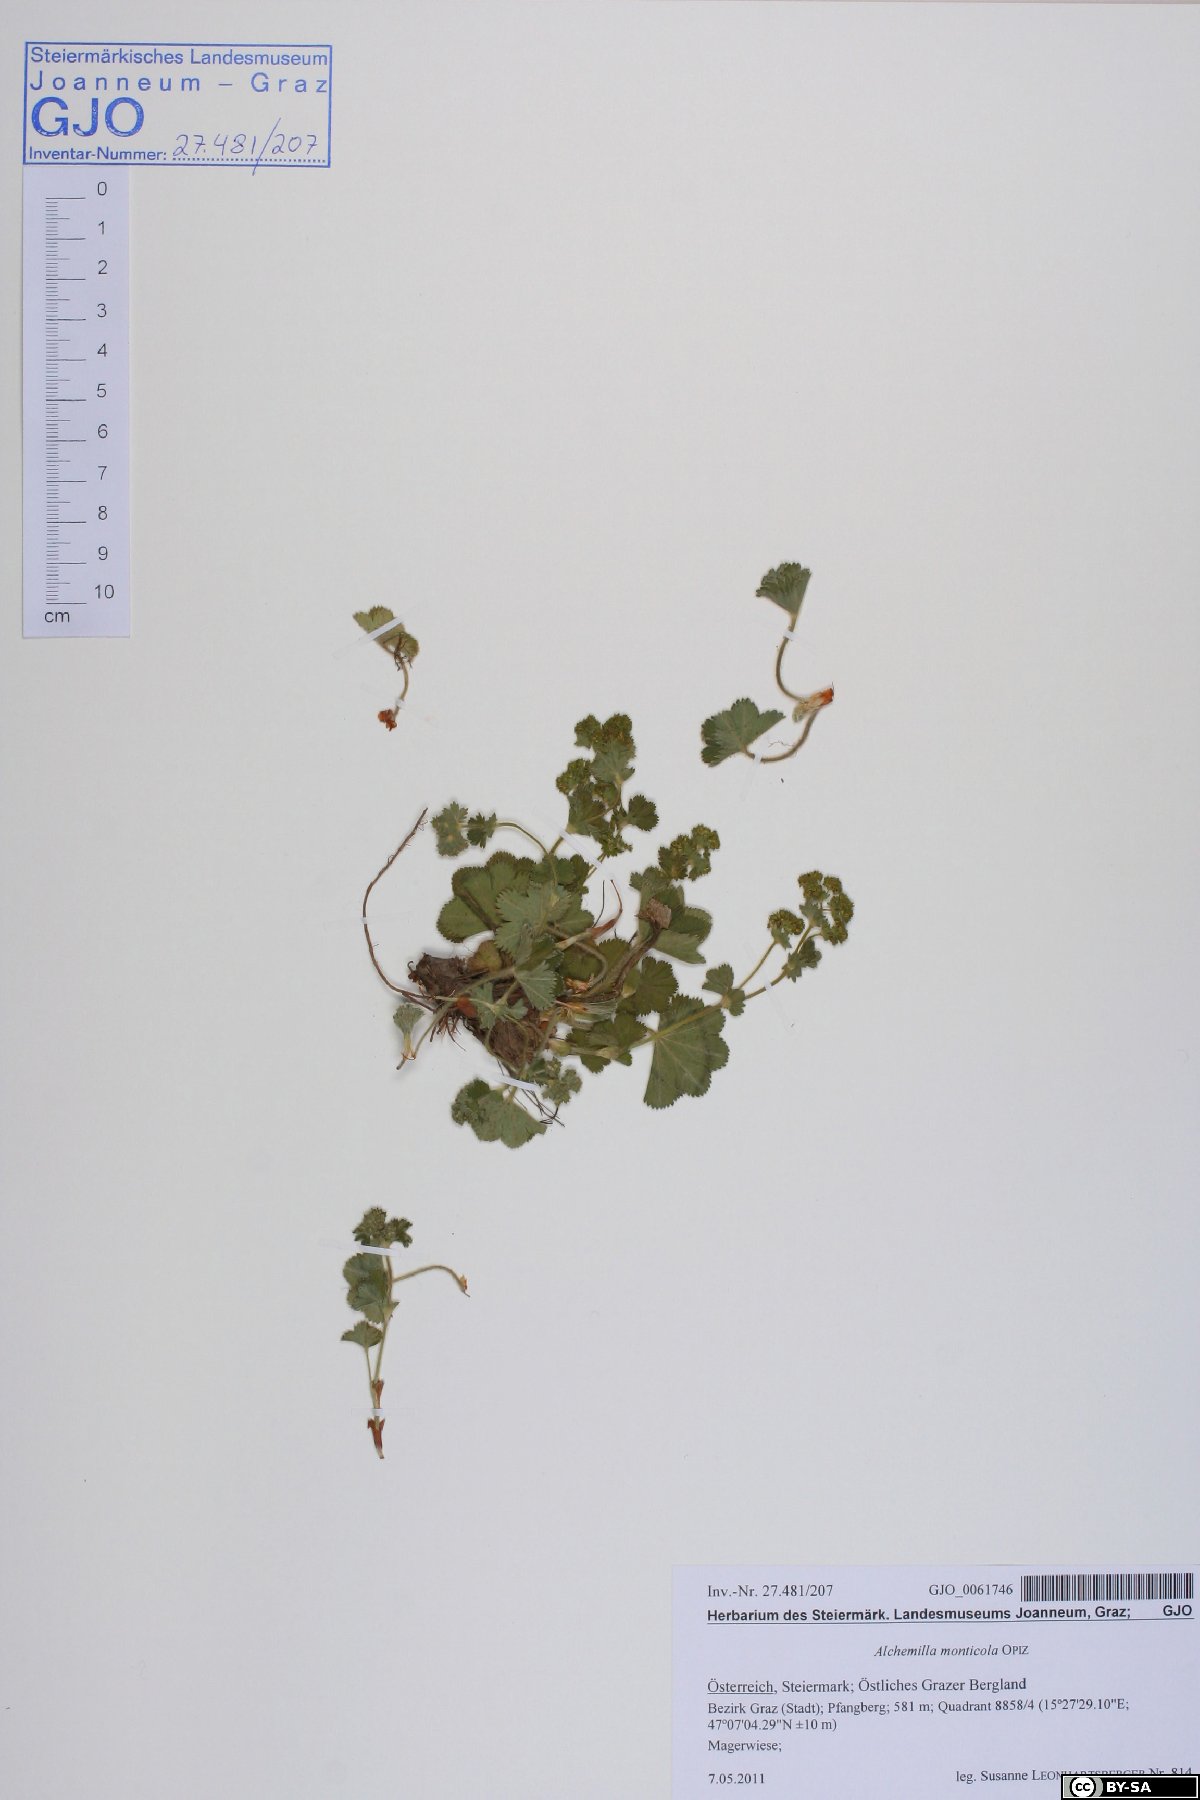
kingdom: Plantae
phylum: Tracheophyta
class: Magnoliopsida
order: Rosales
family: Rosaceae
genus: Alchemilla
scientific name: Alchemilla monticola
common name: Hairy lady's mantle
